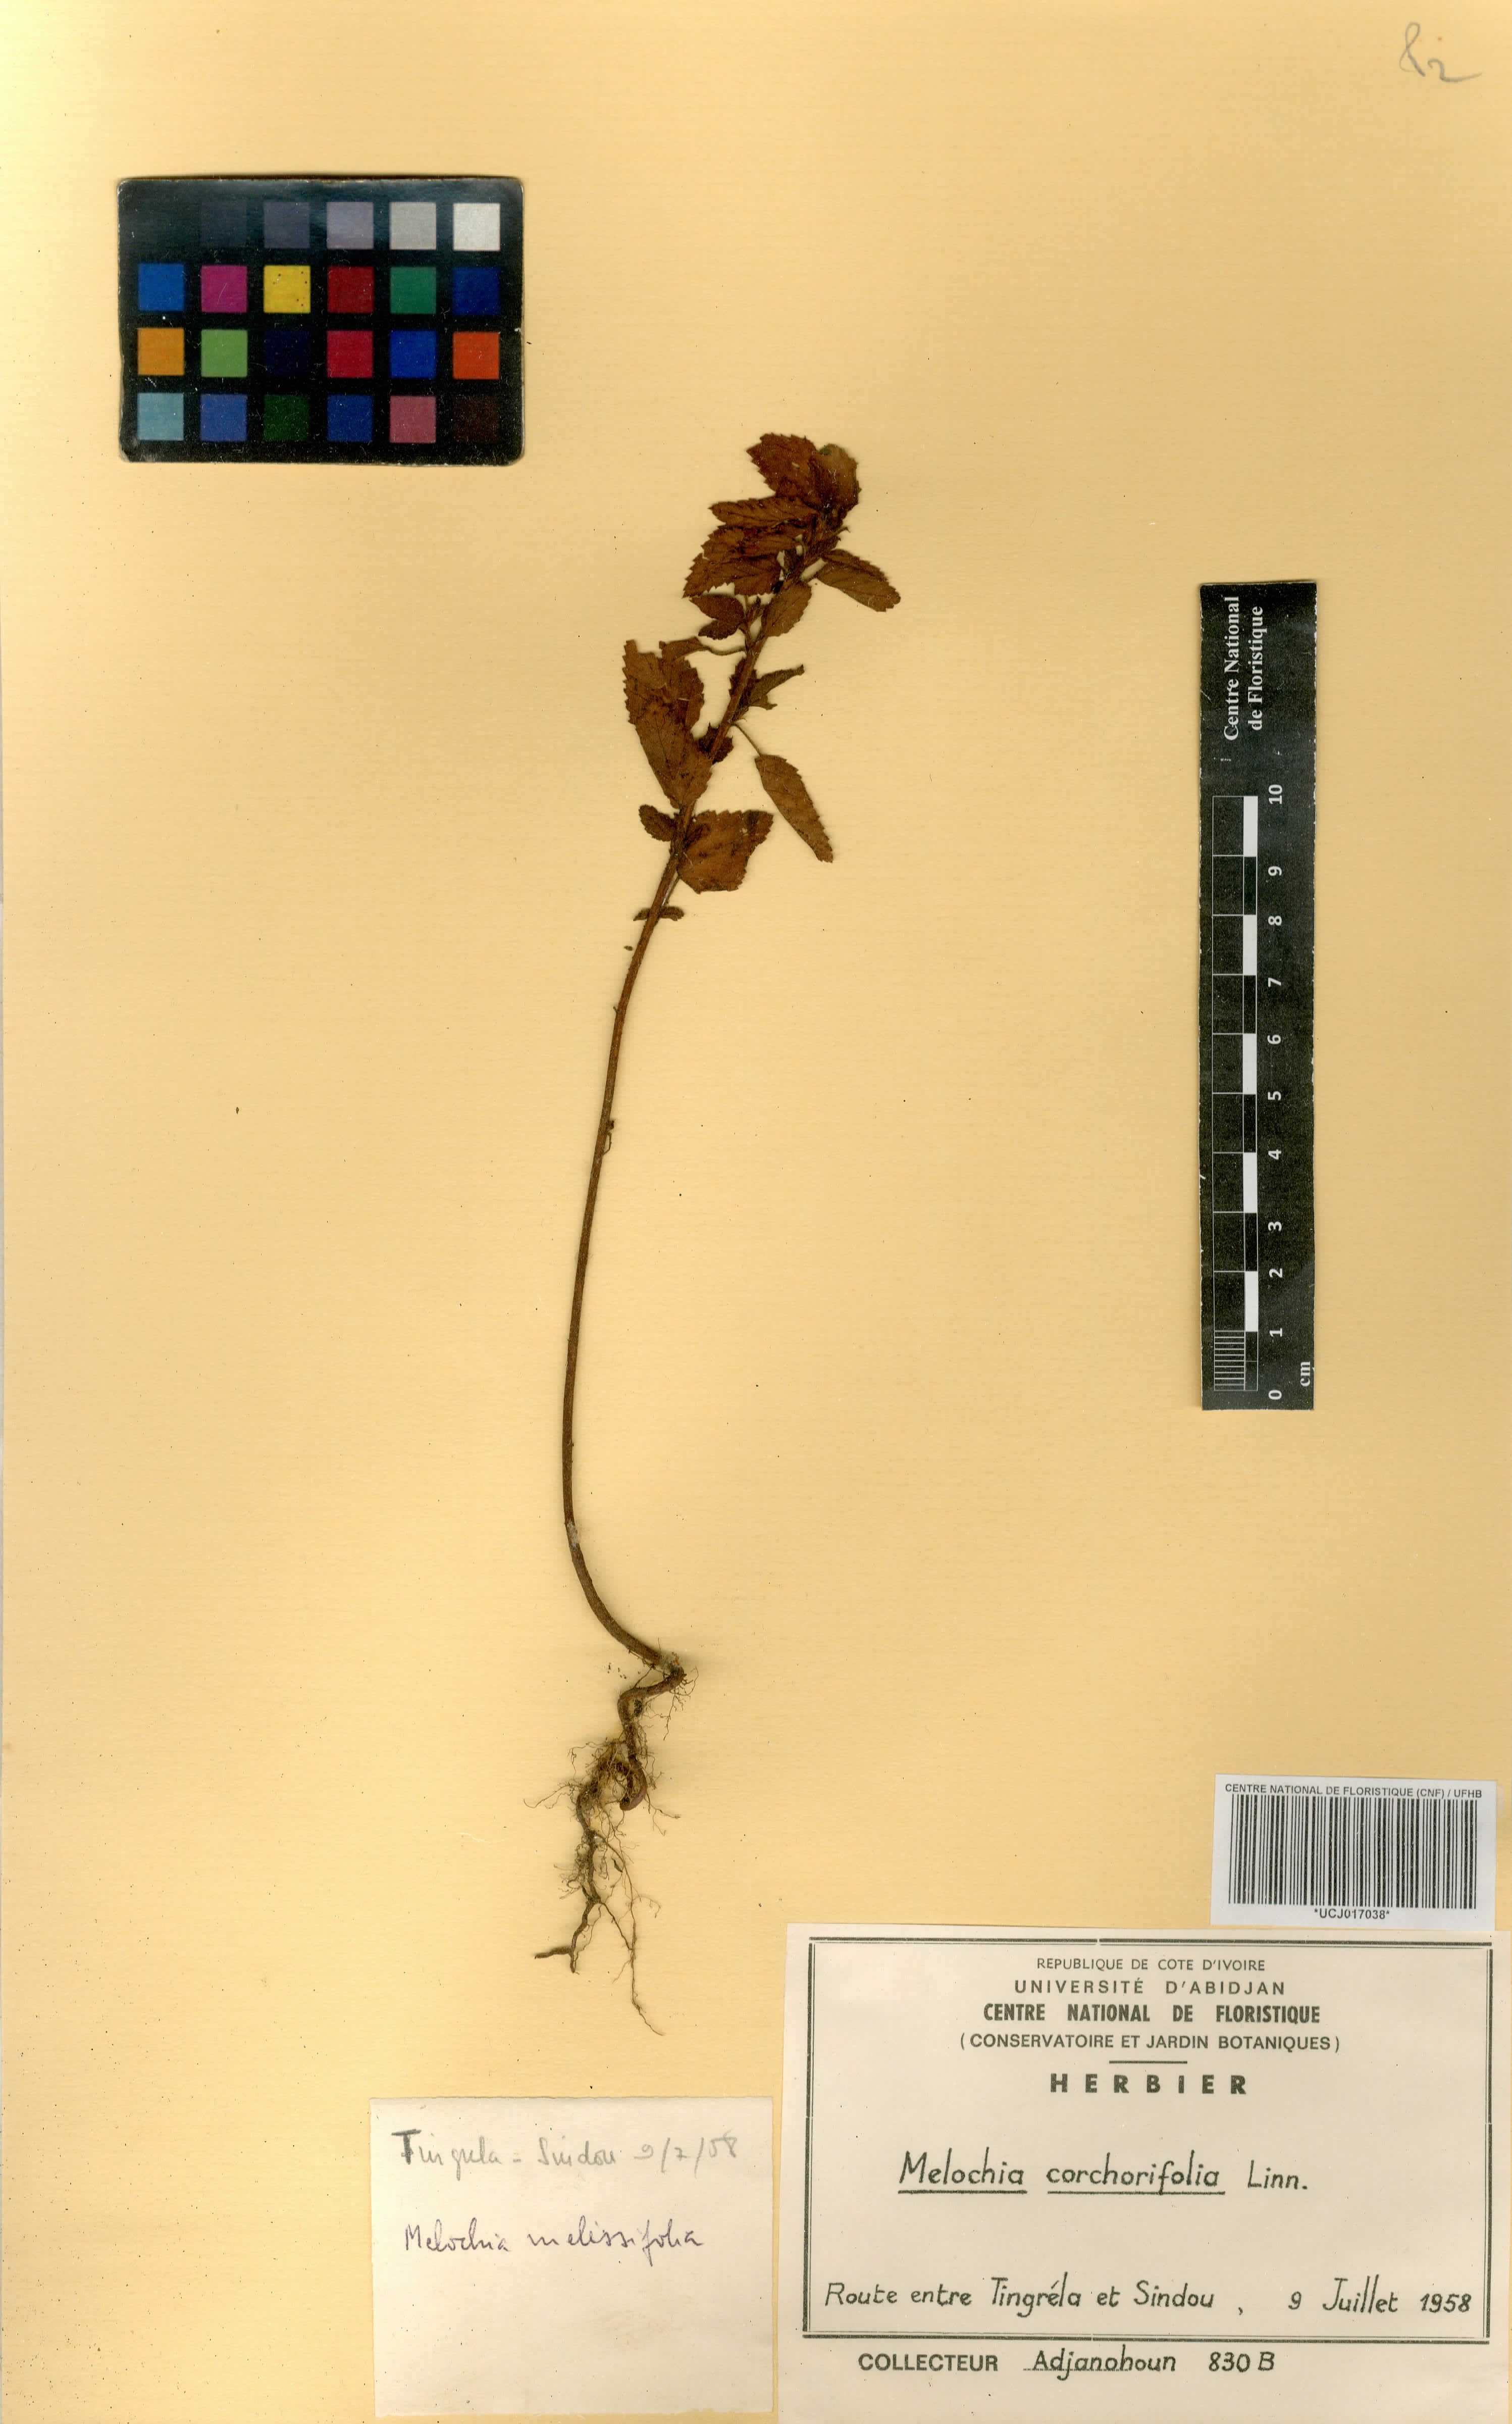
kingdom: Plantae
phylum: Tracheophyta
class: Magnoliopsida
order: Malvales
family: Malvaceae
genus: Melochia
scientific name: Melochia corchorifolia
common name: Chocolateweed
